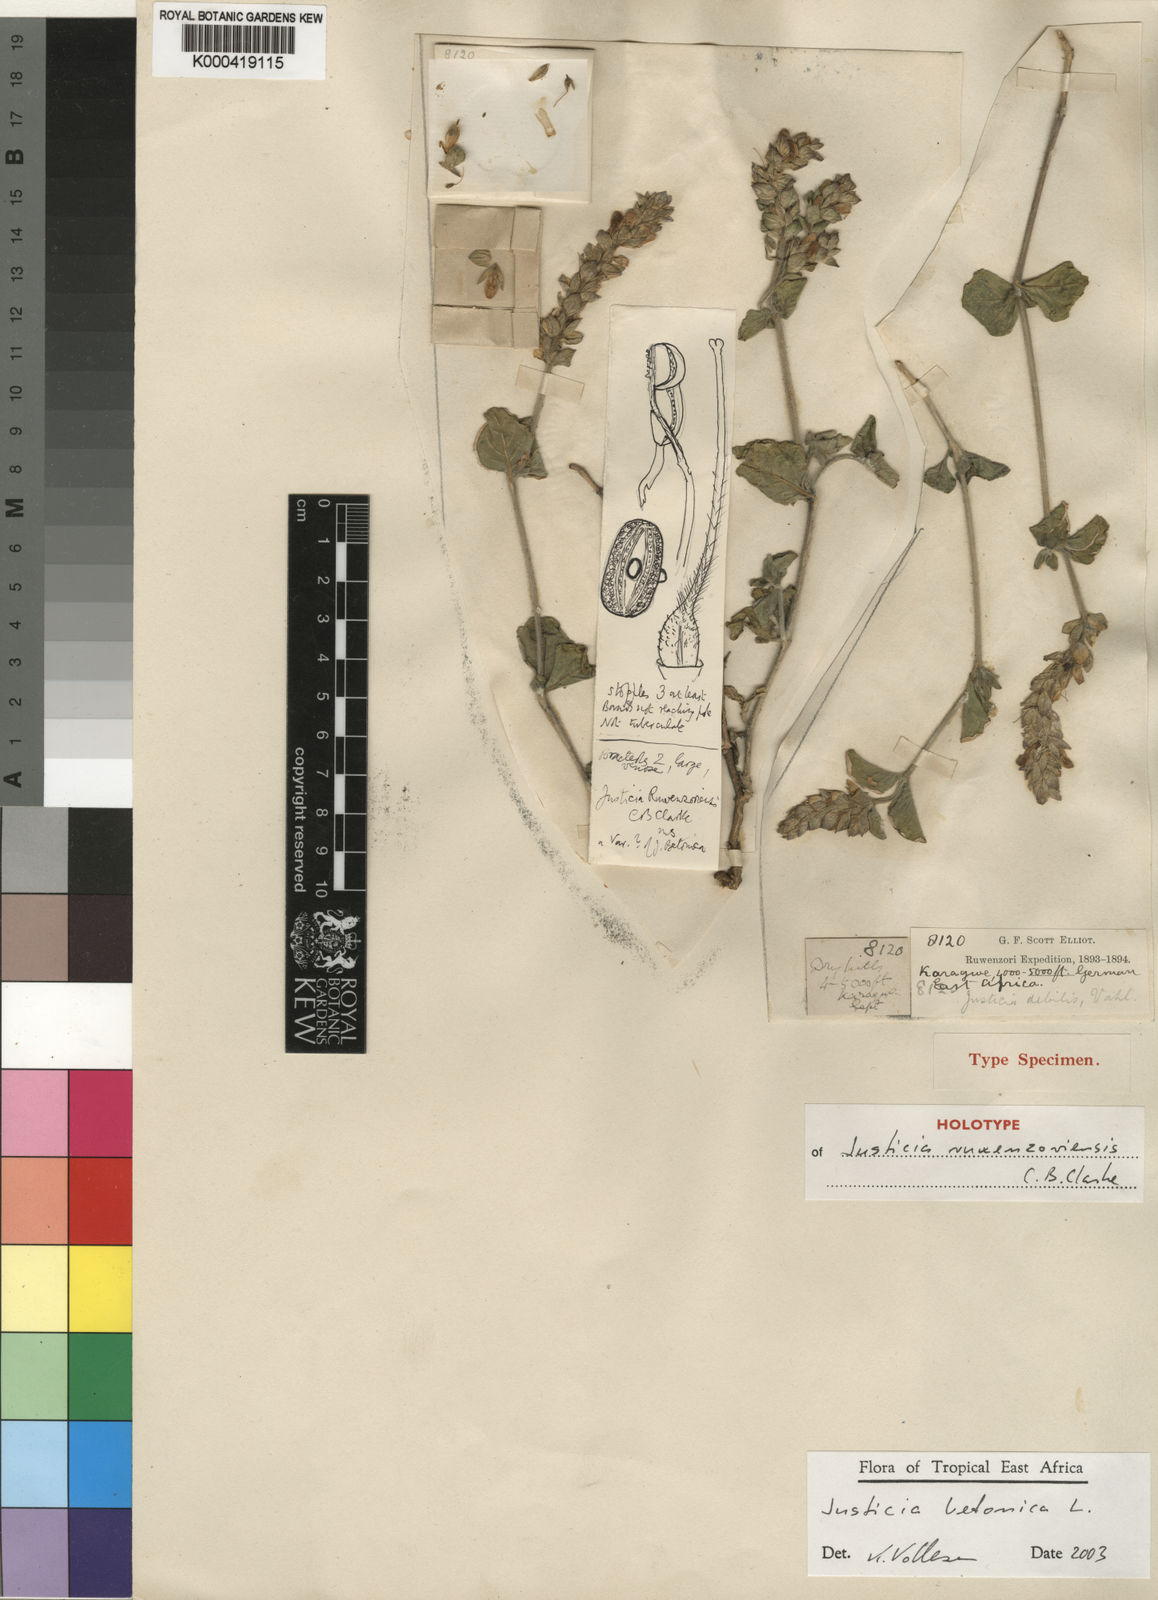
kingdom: Plantae
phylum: Tracheophyta
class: Magnoliopsida
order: Lamiales
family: Acanthaceae
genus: Nicoteba
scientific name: Nicoteba betonica
